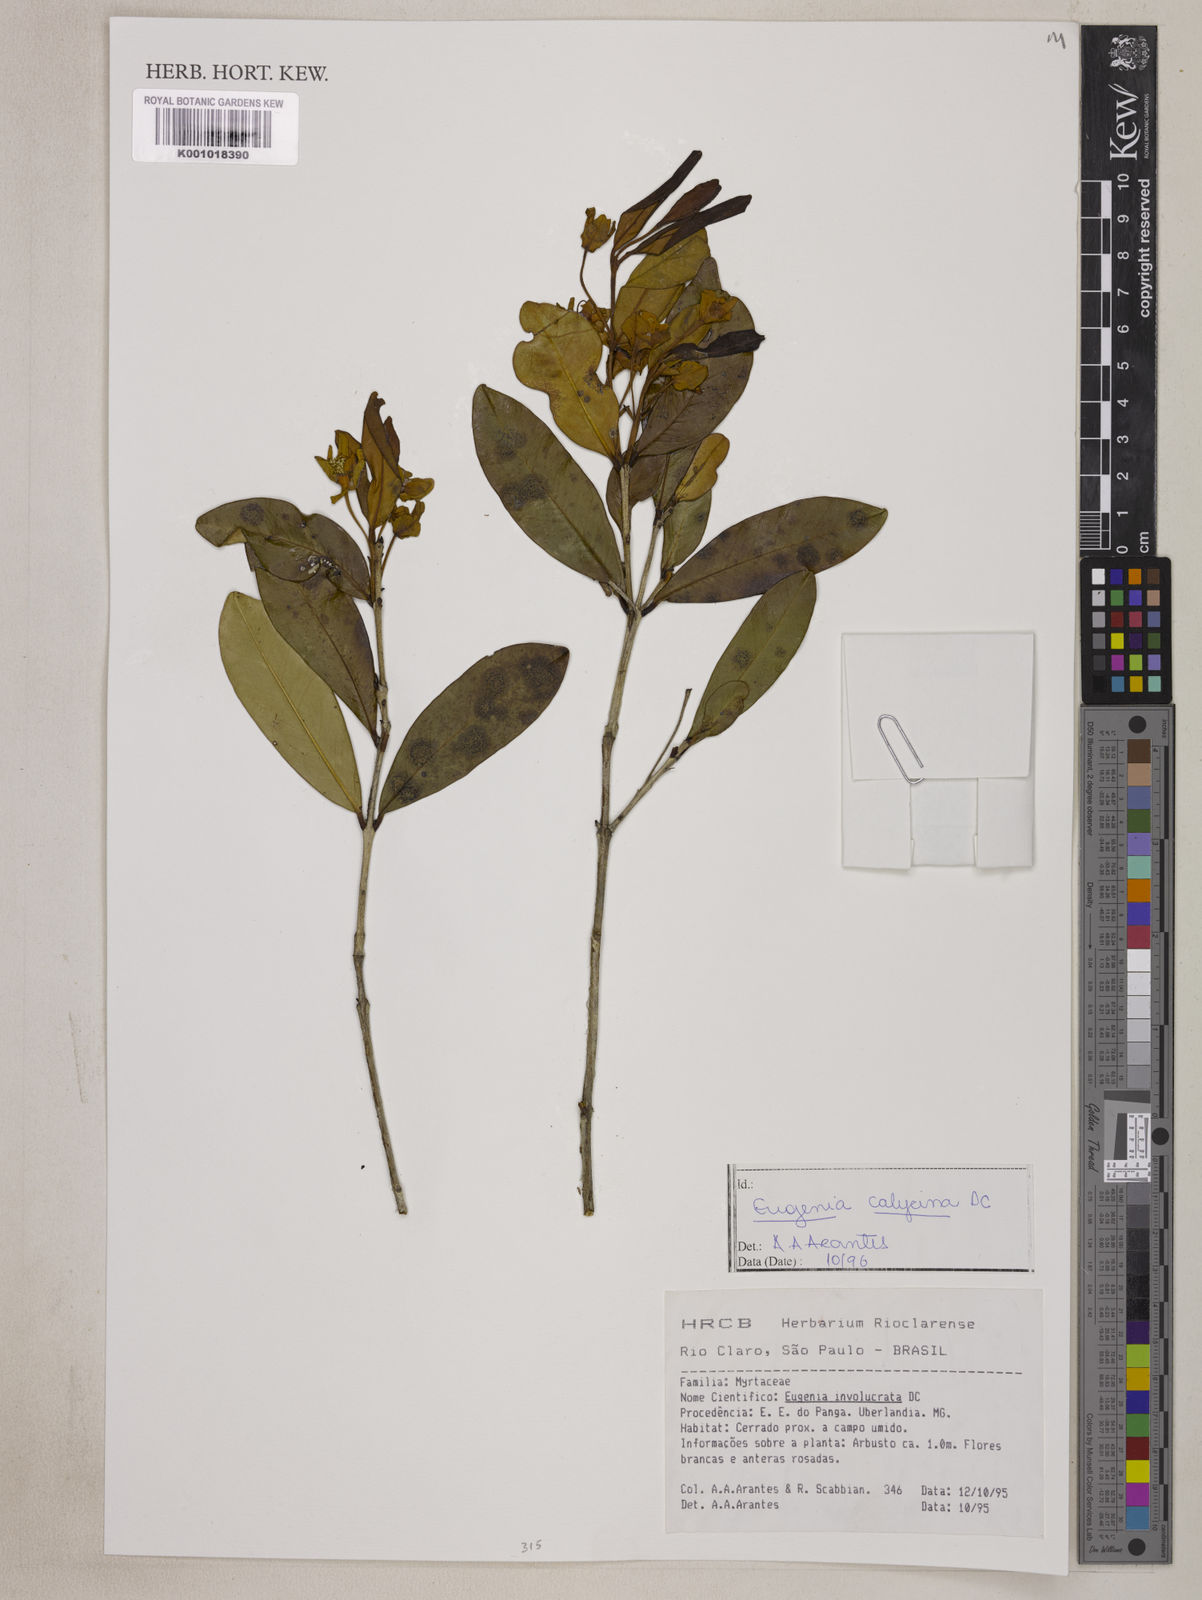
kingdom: Plantae
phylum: Tracheophyta
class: Magnoliopsida
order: Myrtales
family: Myrtaceae
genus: Eugenia
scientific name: Eugenia calycina
